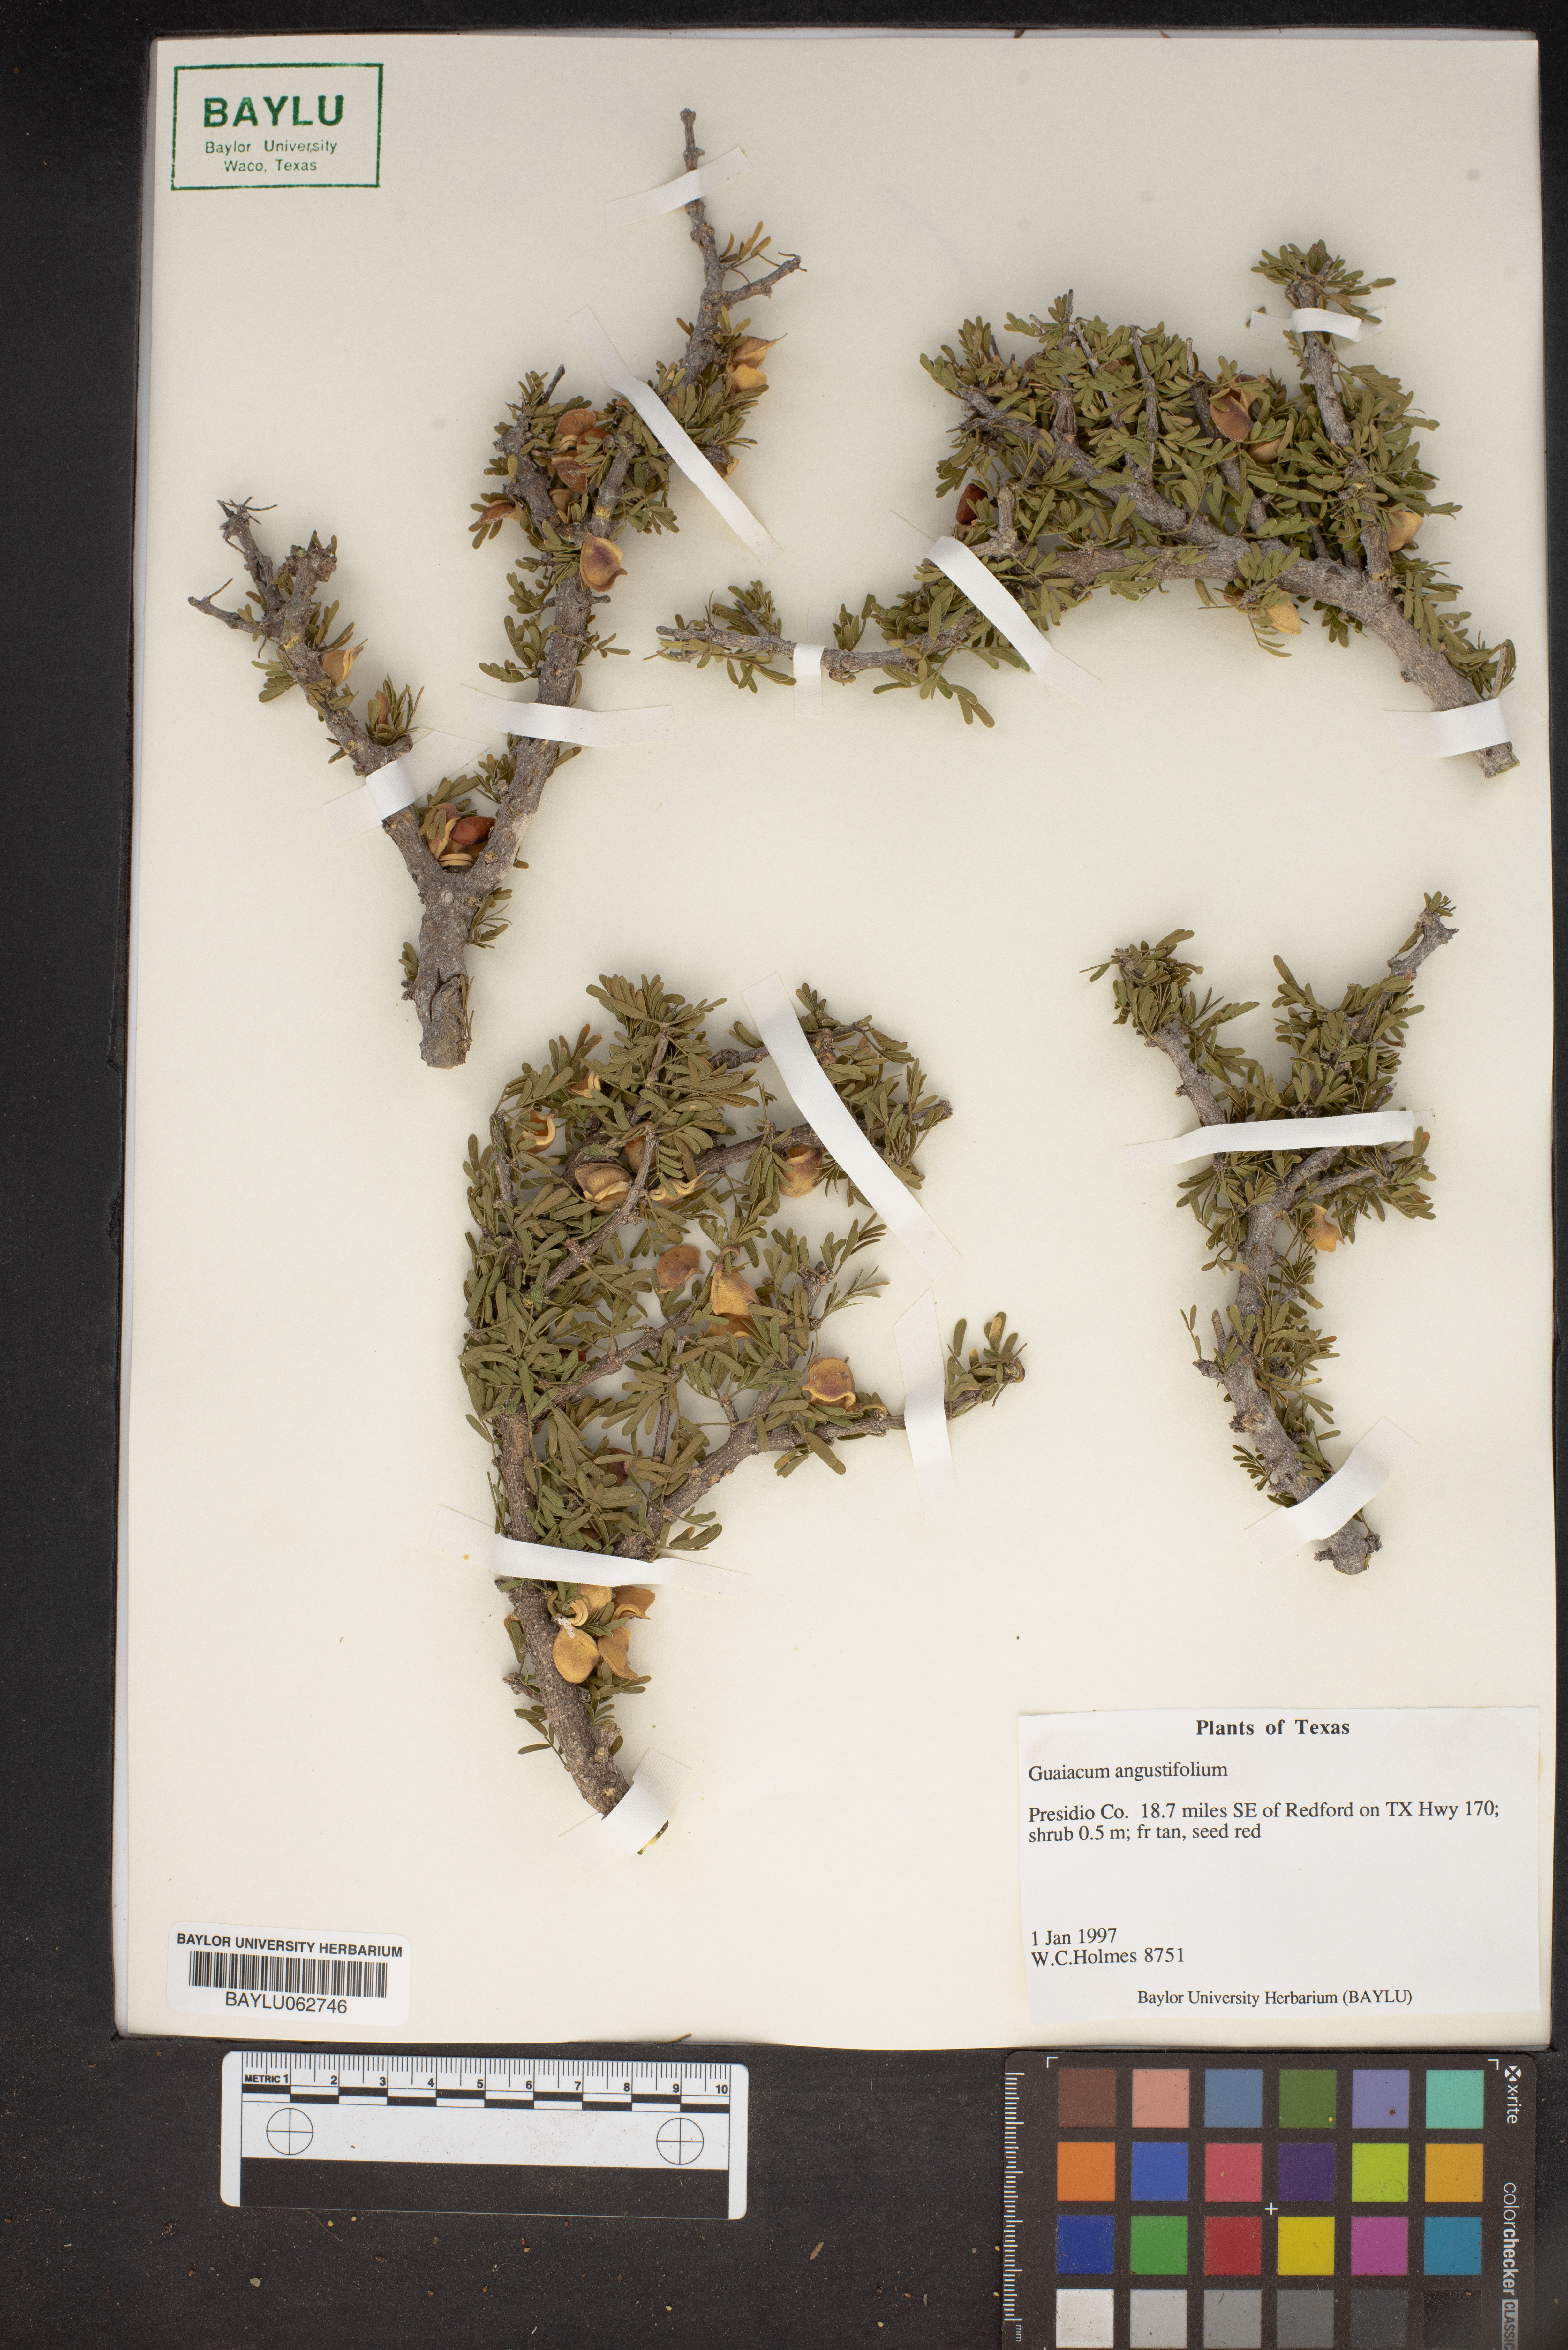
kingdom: Plantae
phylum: Tracheophyta
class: Magnoliopsida
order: Zygophyllales
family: Zygophyllaceae
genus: Porlieria
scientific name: Porlieria angustifolia
